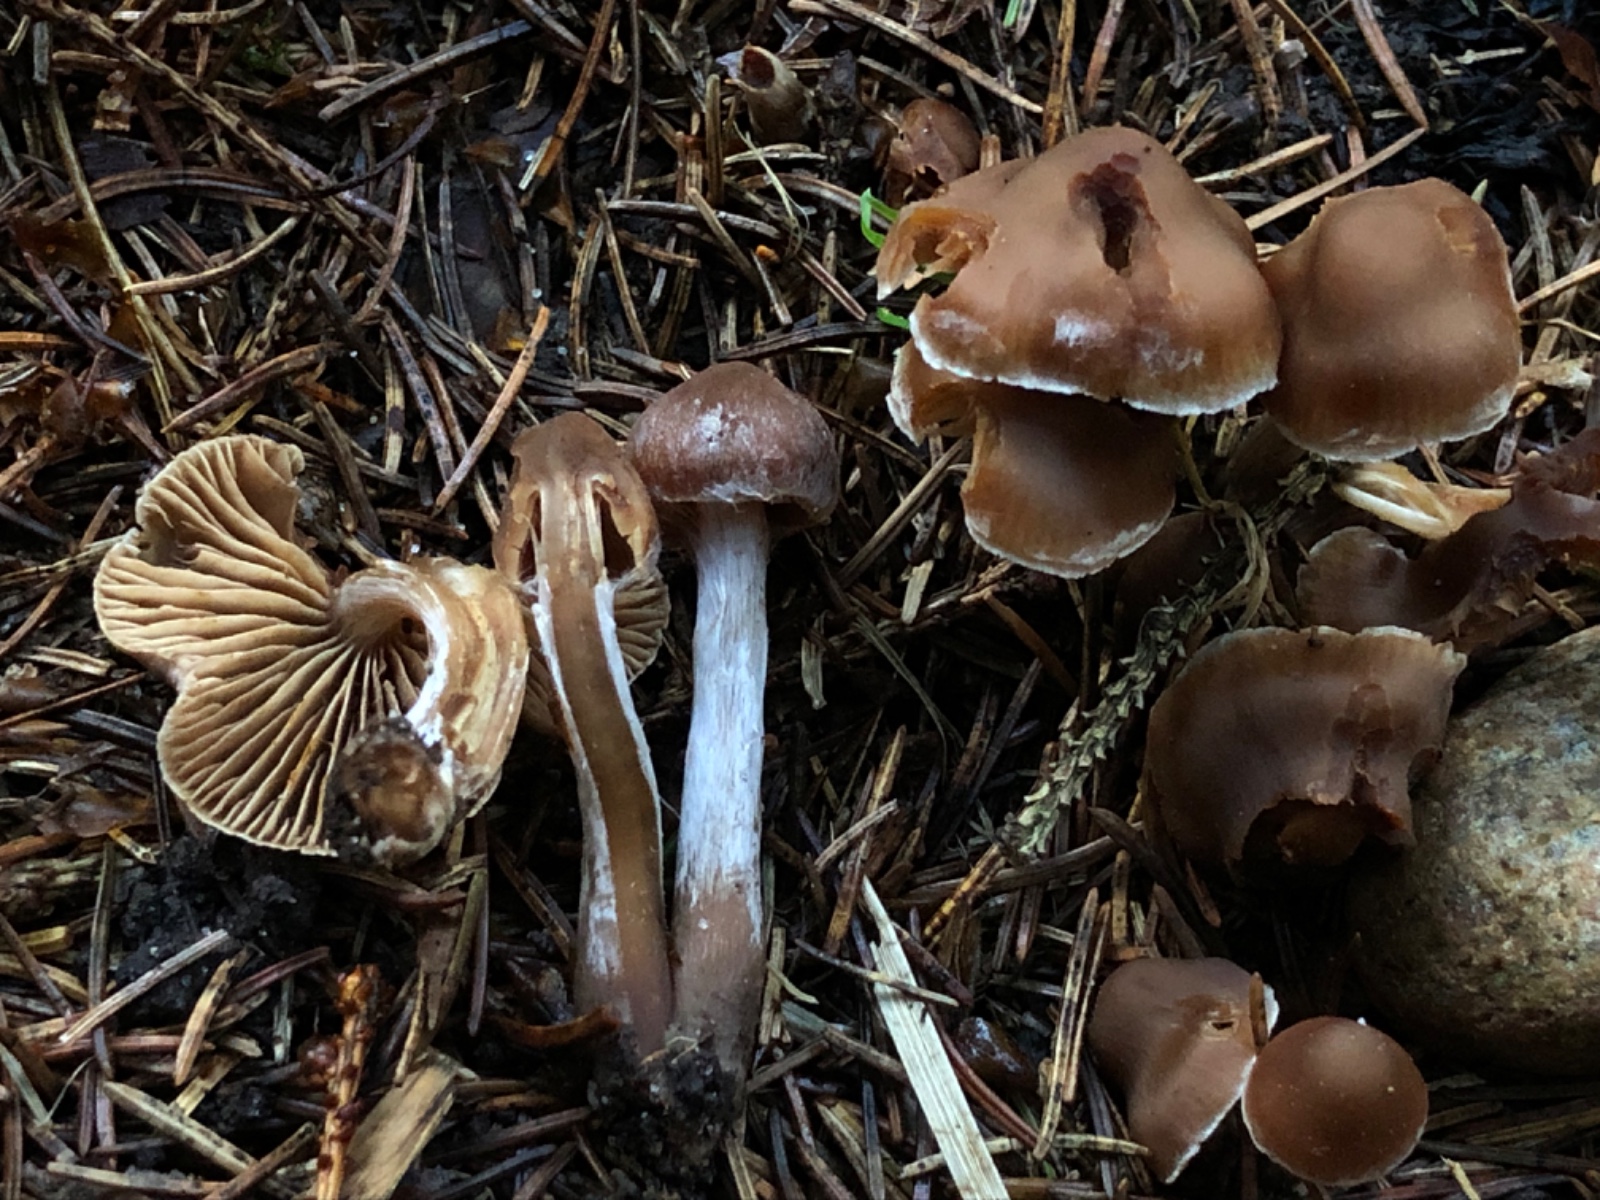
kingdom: Fungi
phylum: Basidiomycota
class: Agaricomycetes
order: Agaricales
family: Cortinariaceae
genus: Cortinarius
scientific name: Cortinarius paulus
